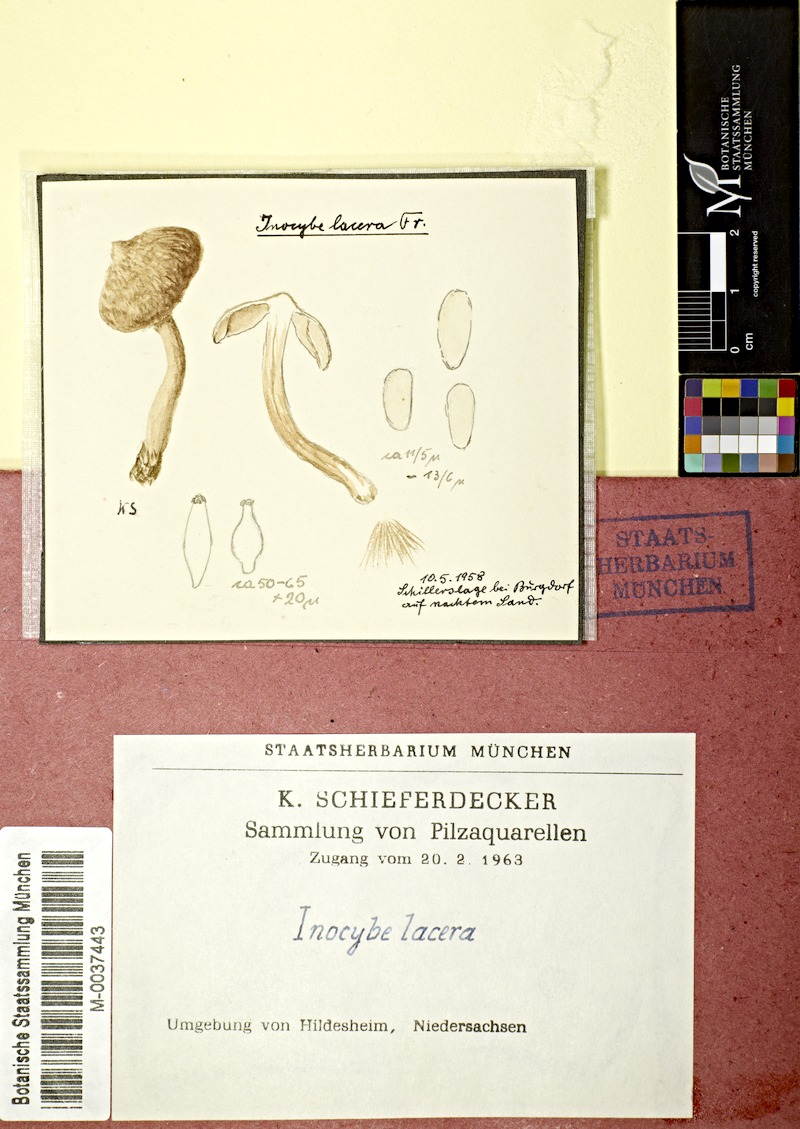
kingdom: Fungi
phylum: Basidiomycota
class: Agaricomycetes
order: Agaricales
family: Inocybaceae
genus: Inocybe
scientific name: Inocybe lacera
